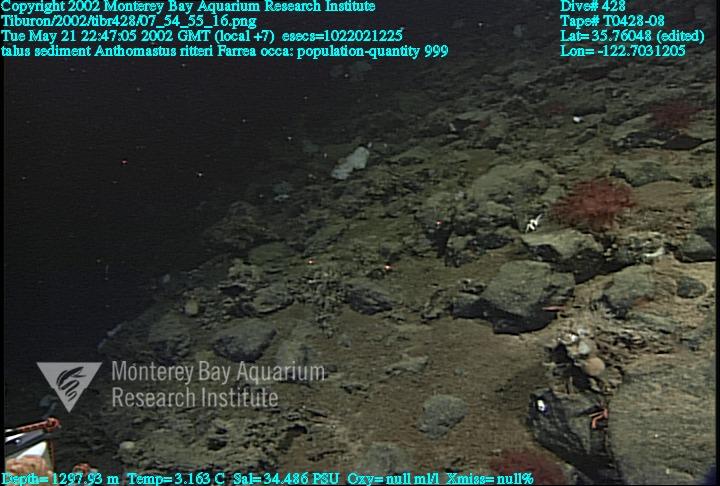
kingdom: Animalia
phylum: Porifera
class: Hexactinellida
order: Sceptrulophora
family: Farreidae
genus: Farrea
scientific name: Farrea occa
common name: Reversed glass sponge
